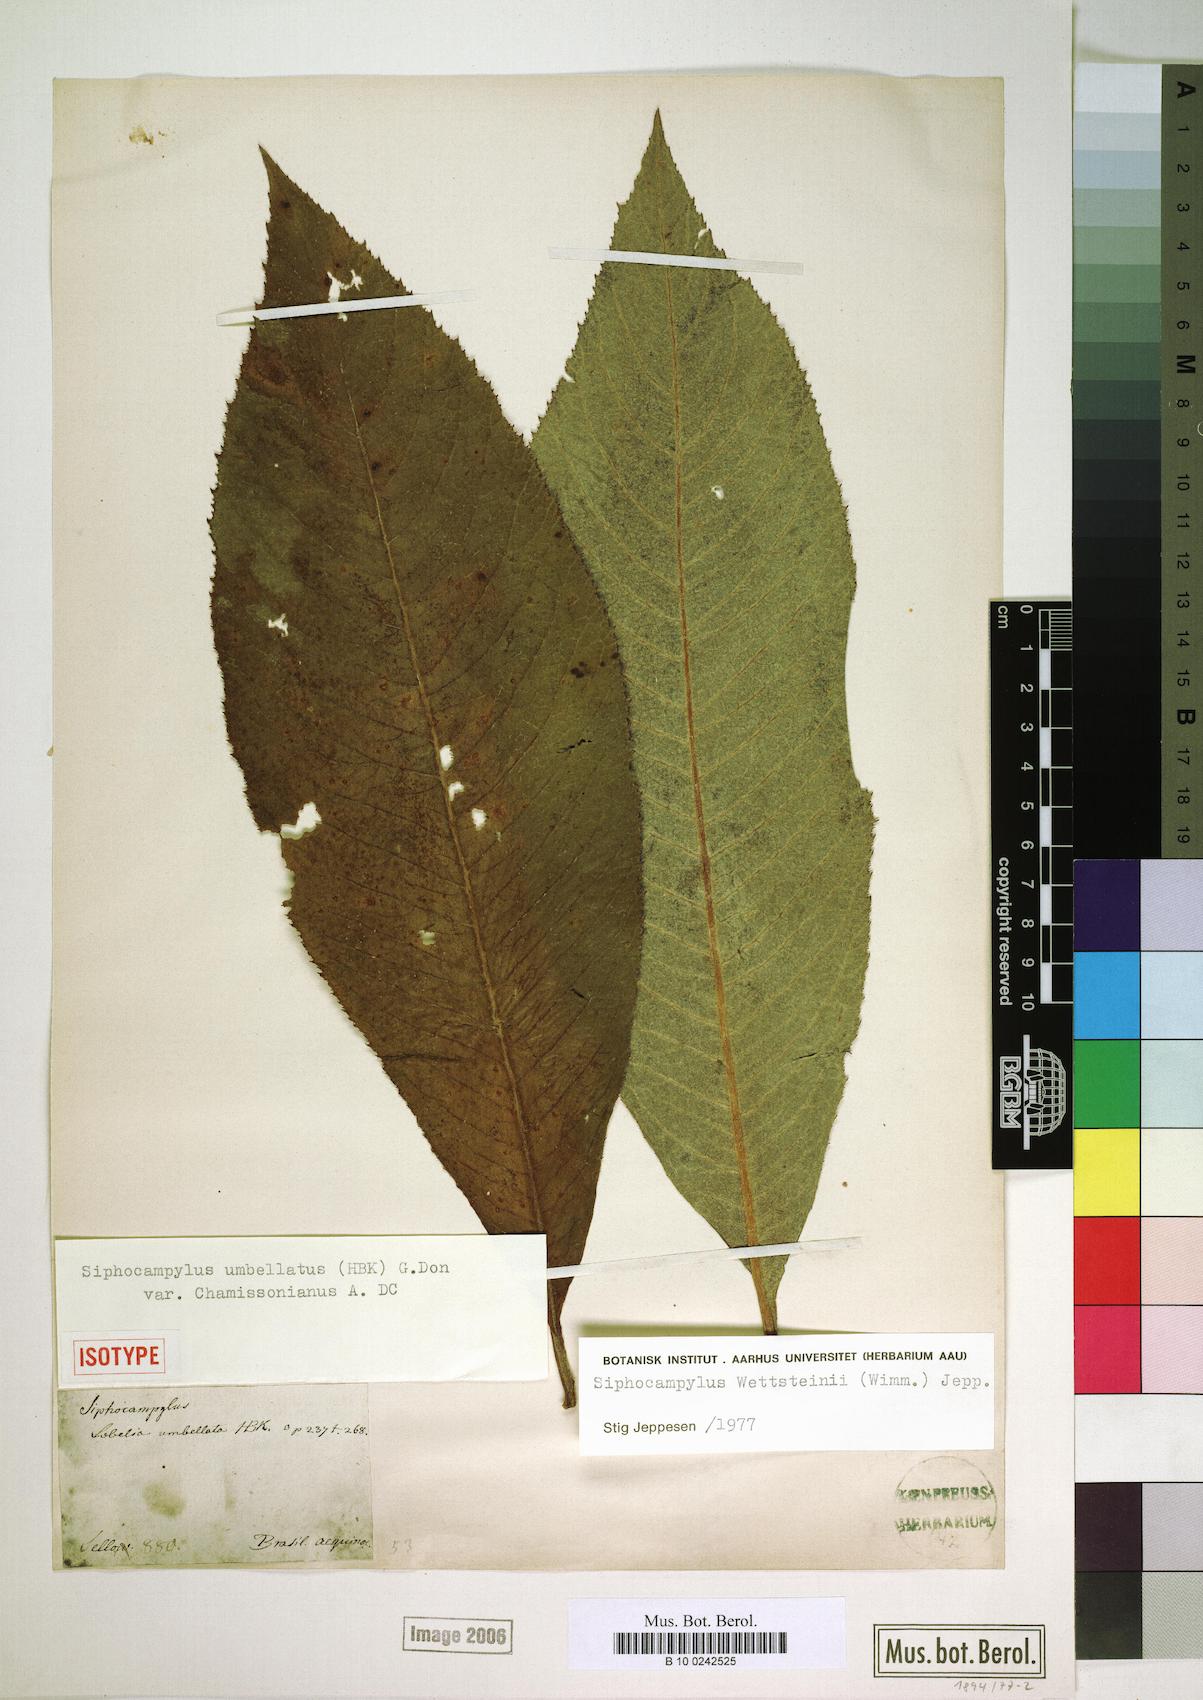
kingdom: Plantae
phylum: Tracheophyta
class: Magnoliopsida
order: Asterales
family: Campanulaceae
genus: Siphocampylus
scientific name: Siphocampylus
